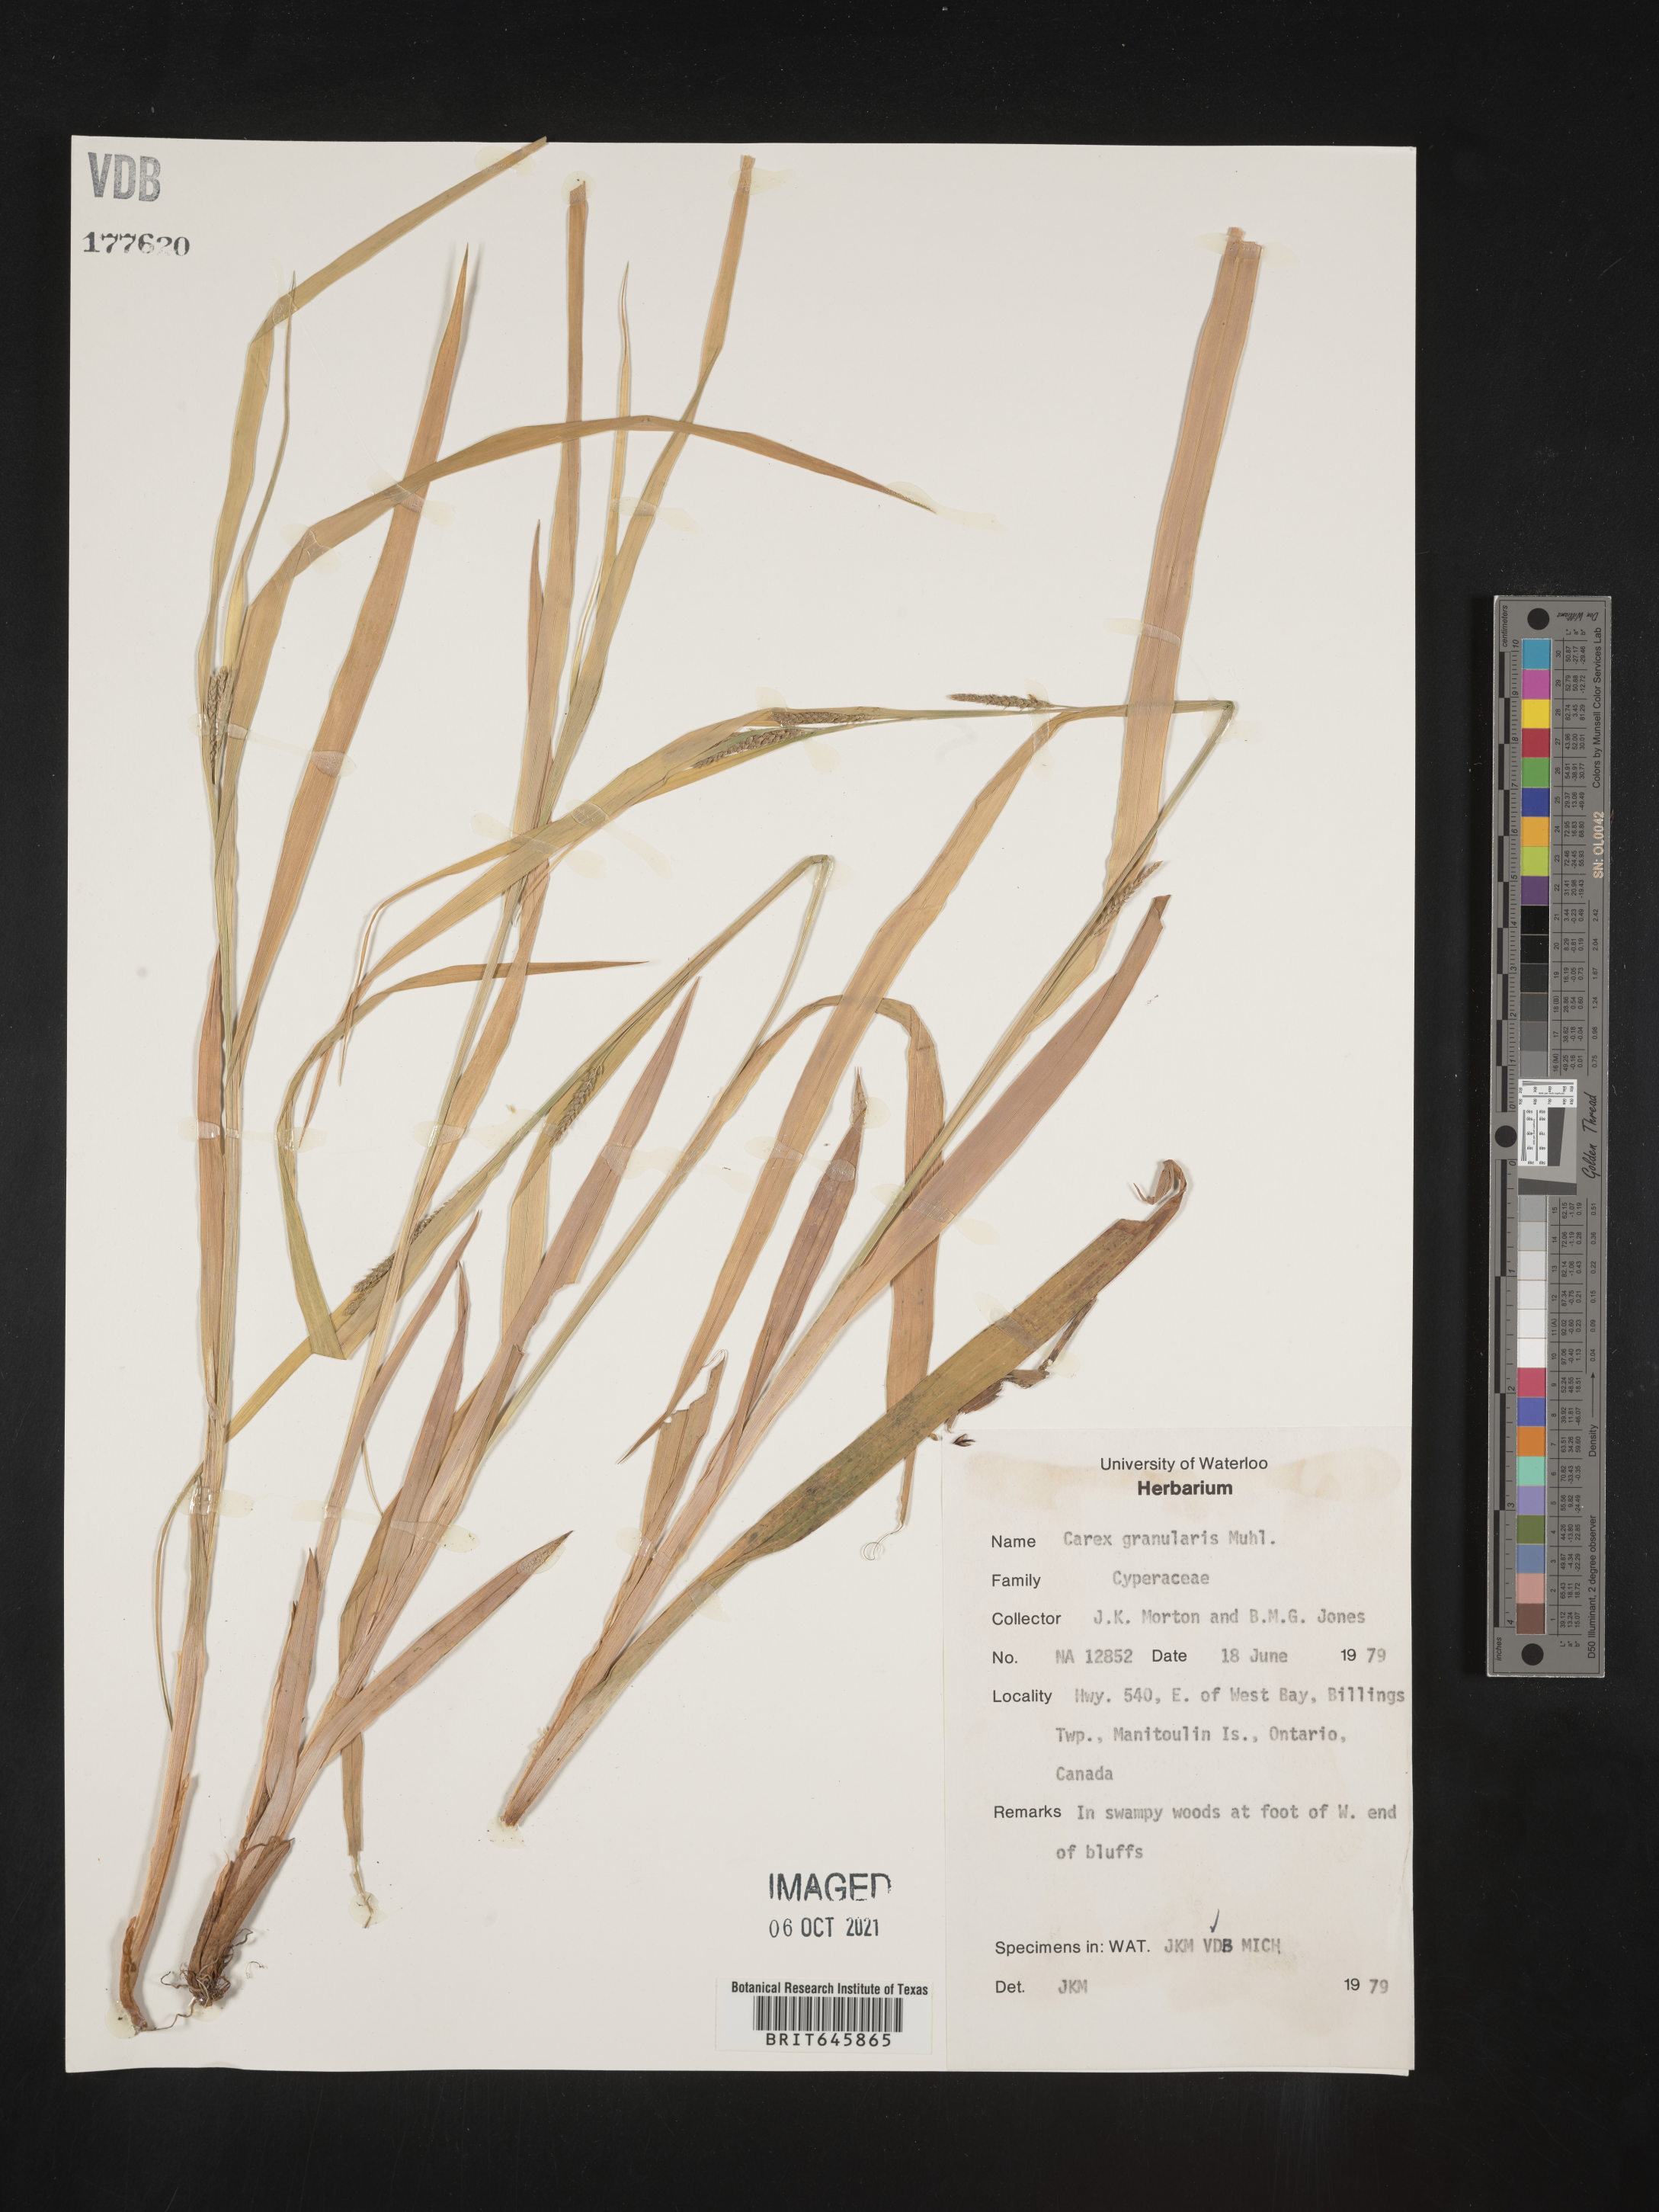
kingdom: Plantae
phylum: Tracheophyta
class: Liliopsida
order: Poales
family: Cyperaceae
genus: Carex
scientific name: Carex granularis
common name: Granular sedge
